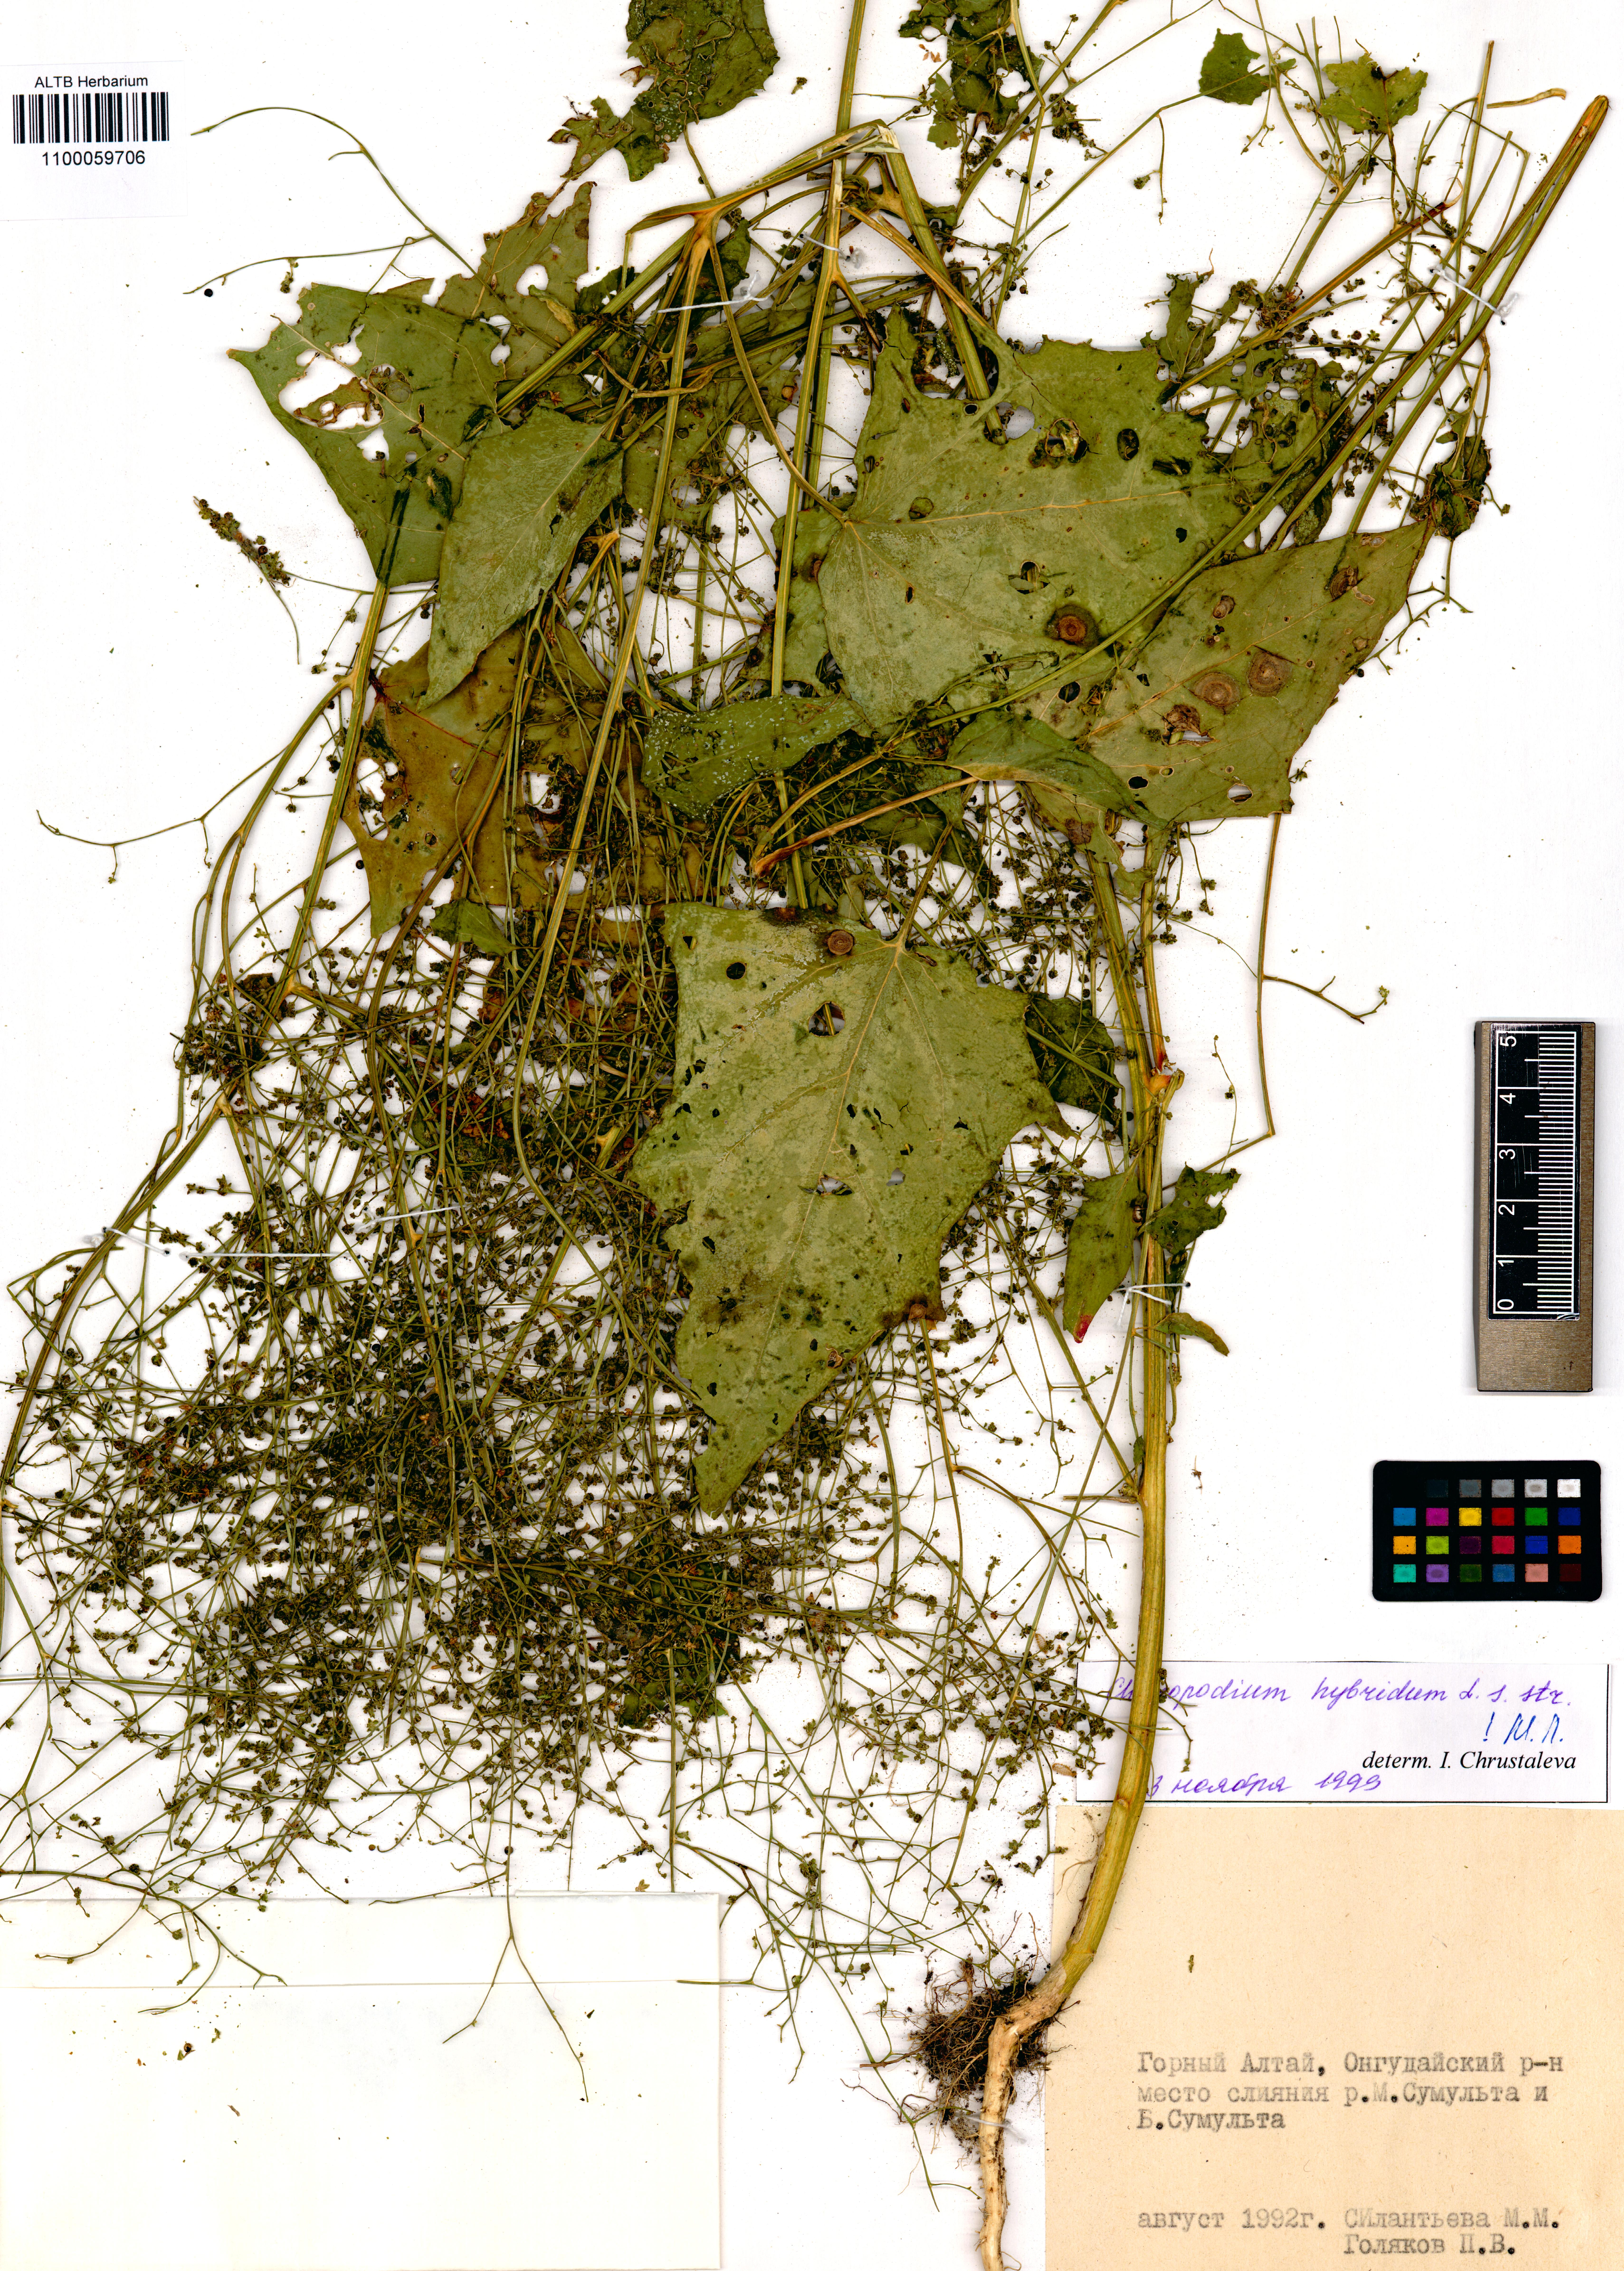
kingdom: Plantae
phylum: Tracheophyta
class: Magnoliopsida
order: Caryophyllales
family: Amaranthaceae
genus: Chenopodiastrum
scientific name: Chenopodiastrum hybridum
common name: Mapleleaf goosefoot
